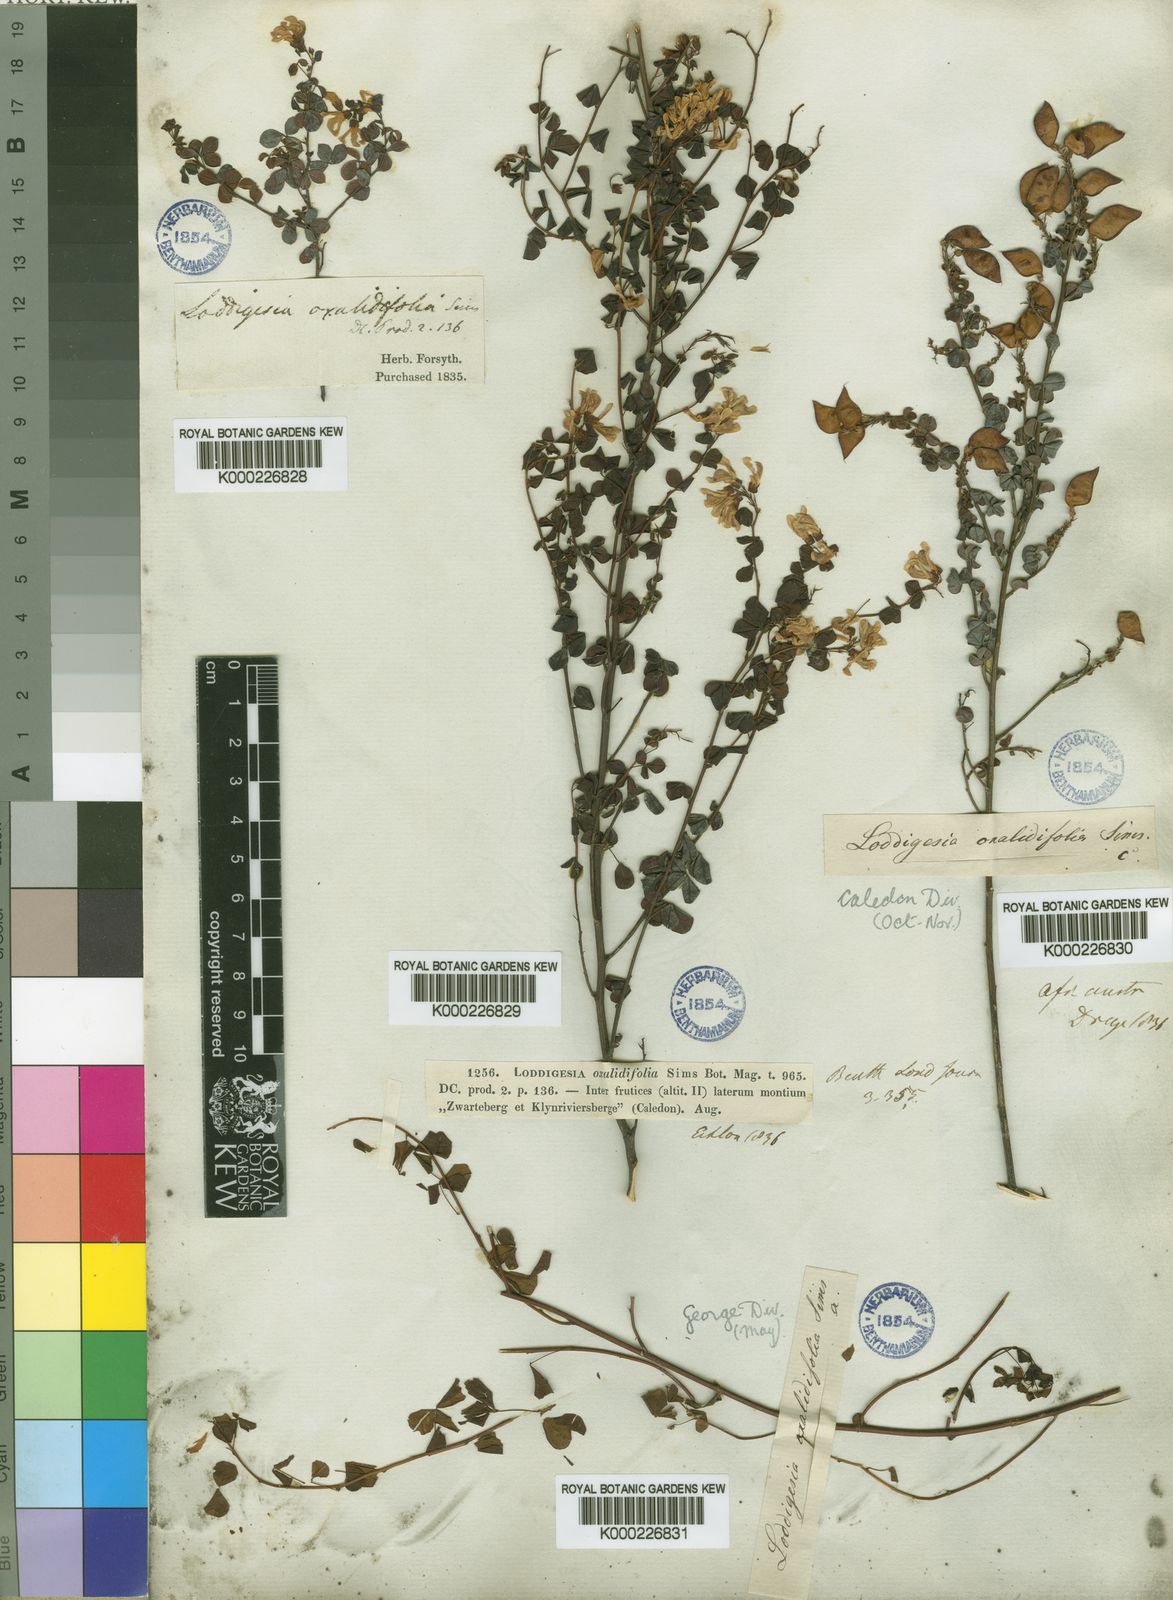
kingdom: Plantae
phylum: Tracheophyta
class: Magnoliopsida
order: Fabales
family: Fabaceae
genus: Hypocalyptus
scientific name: Hypocalyptus oxalidifolius
